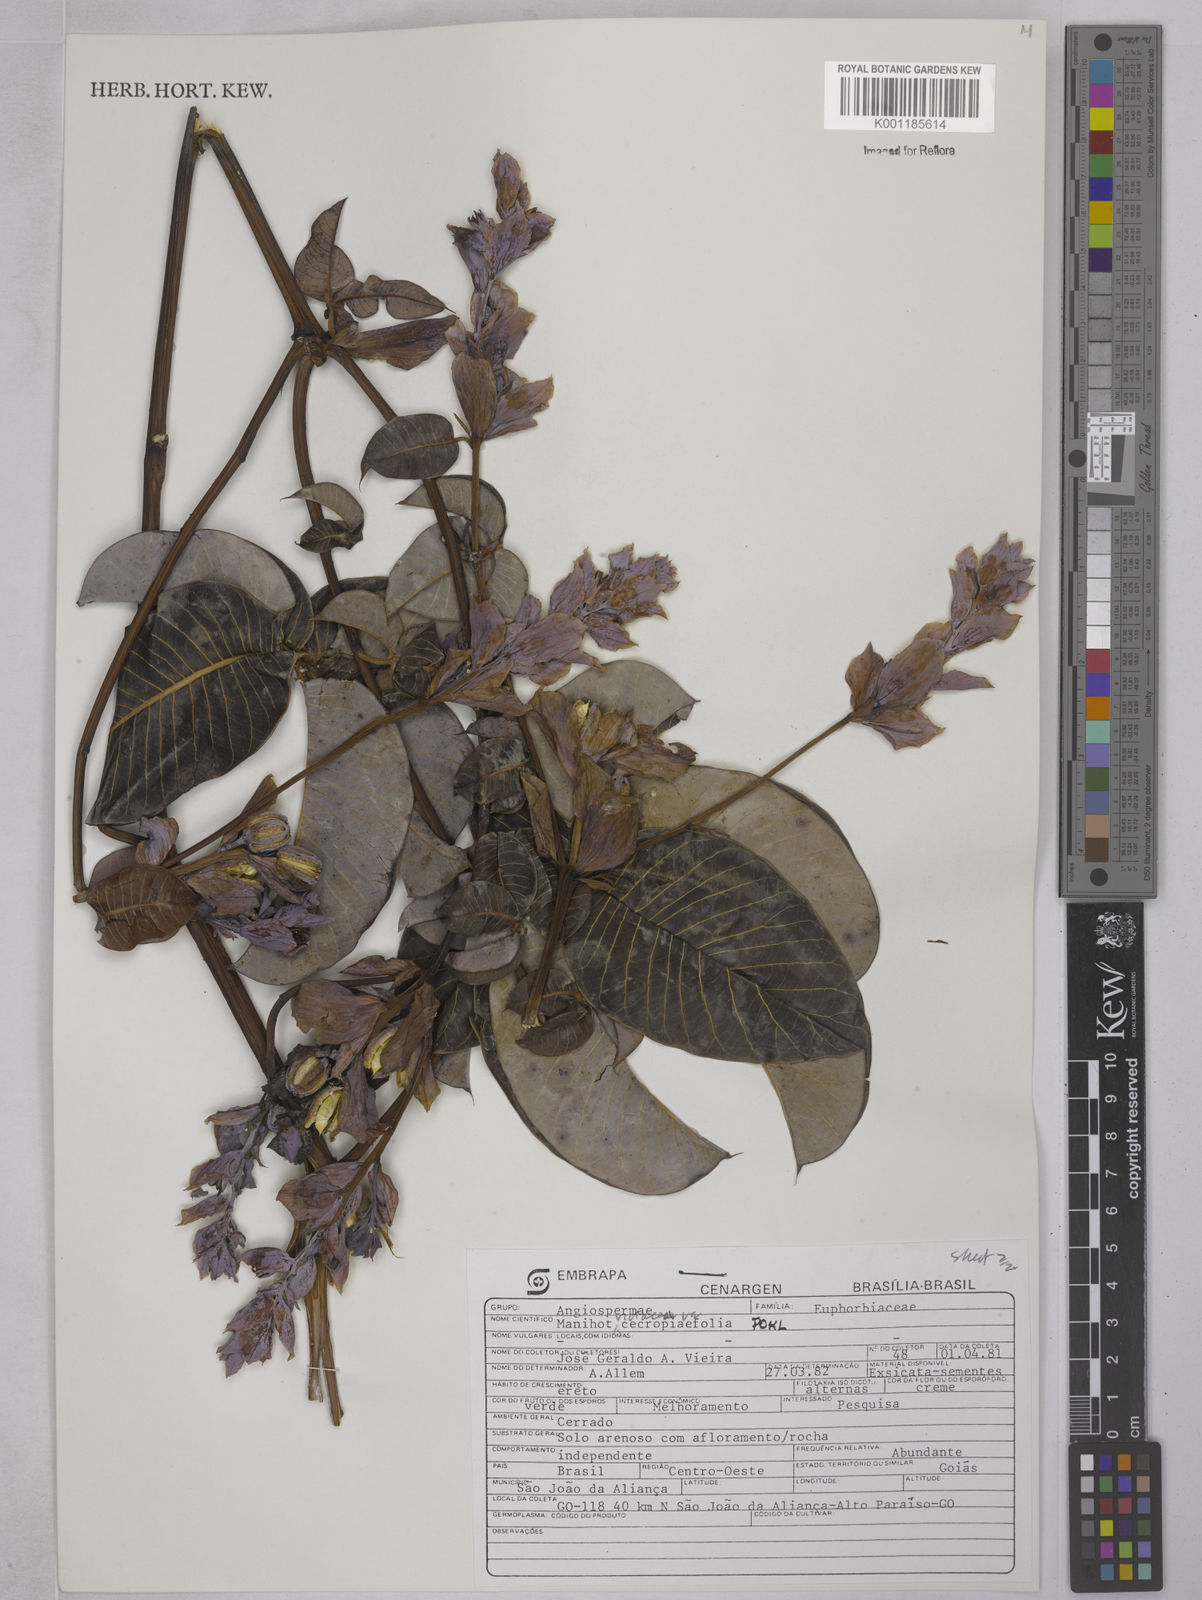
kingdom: Plantae
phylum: Tracheophyta
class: Magnoliopsida
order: Malpighiales
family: Euphorbiaceae
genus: Manihot
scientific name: Manihot cecropiifolia
